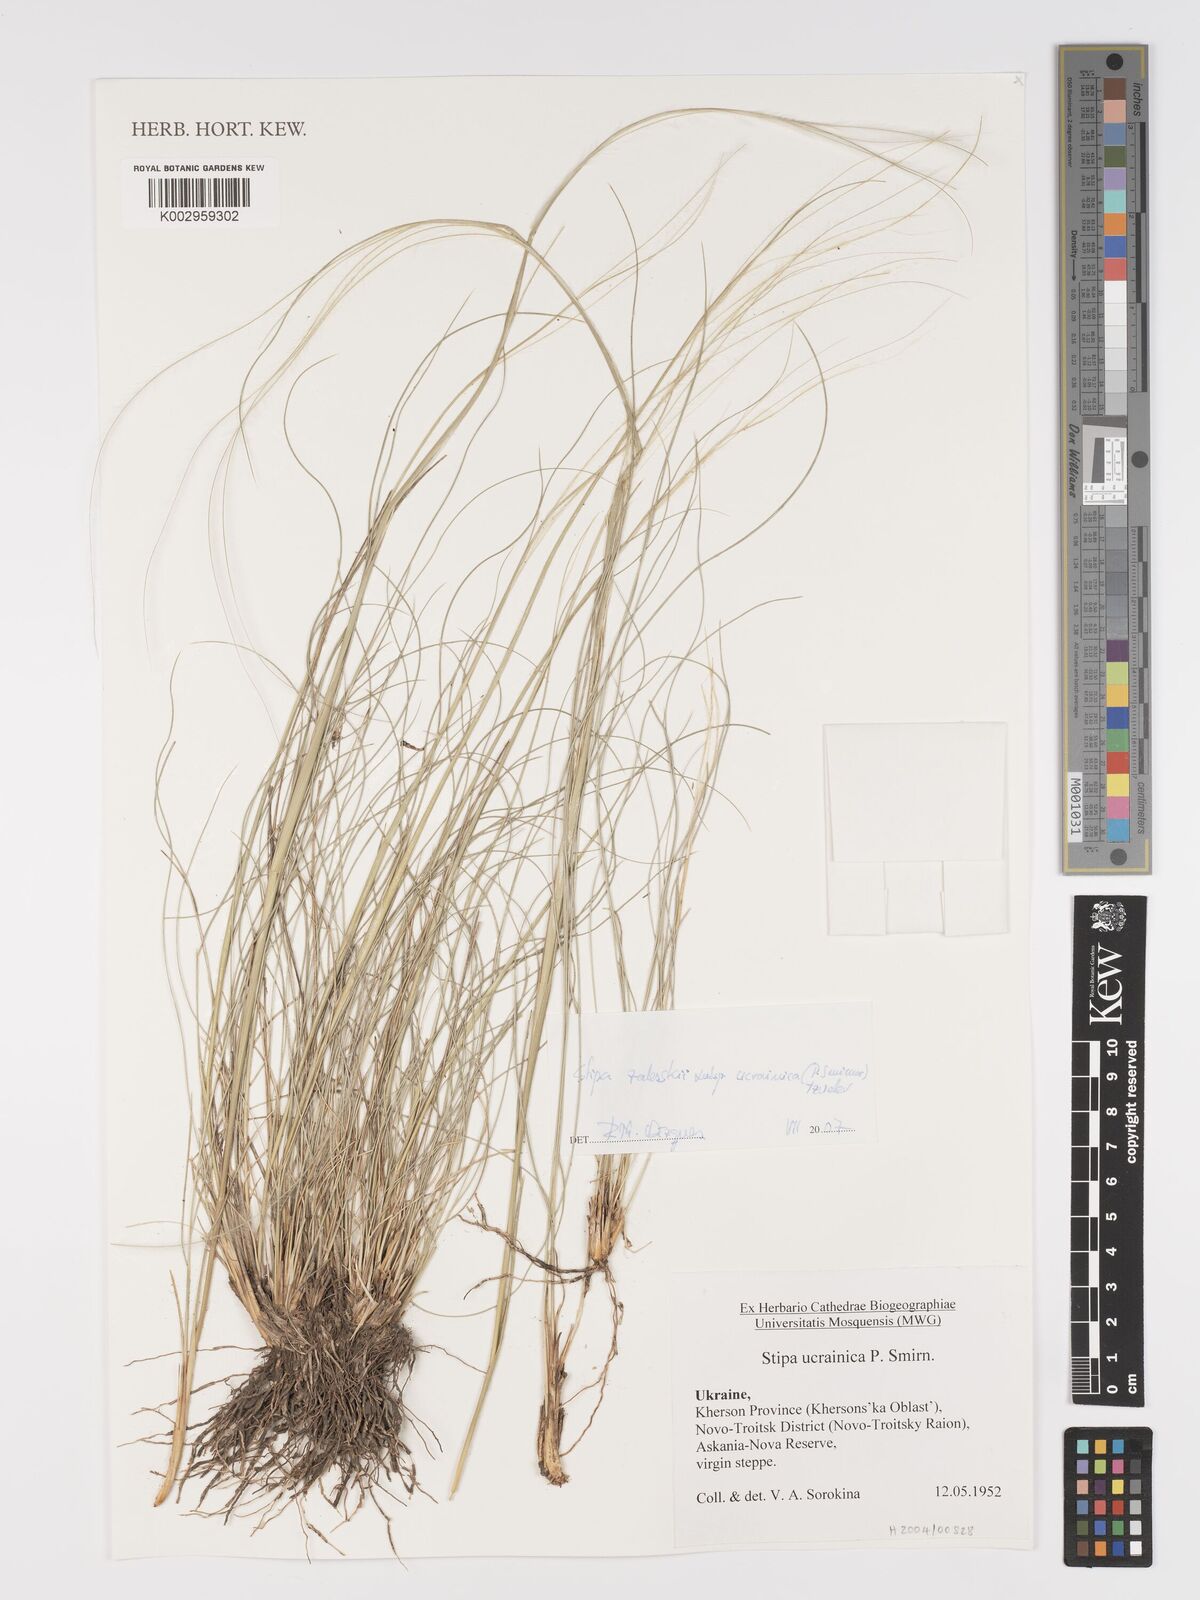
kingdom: Plantae
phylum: Tracheophyta
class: Liliopsida
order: Poales
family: Poaceae
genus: Stipa
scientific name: Stipa zalesskyi
